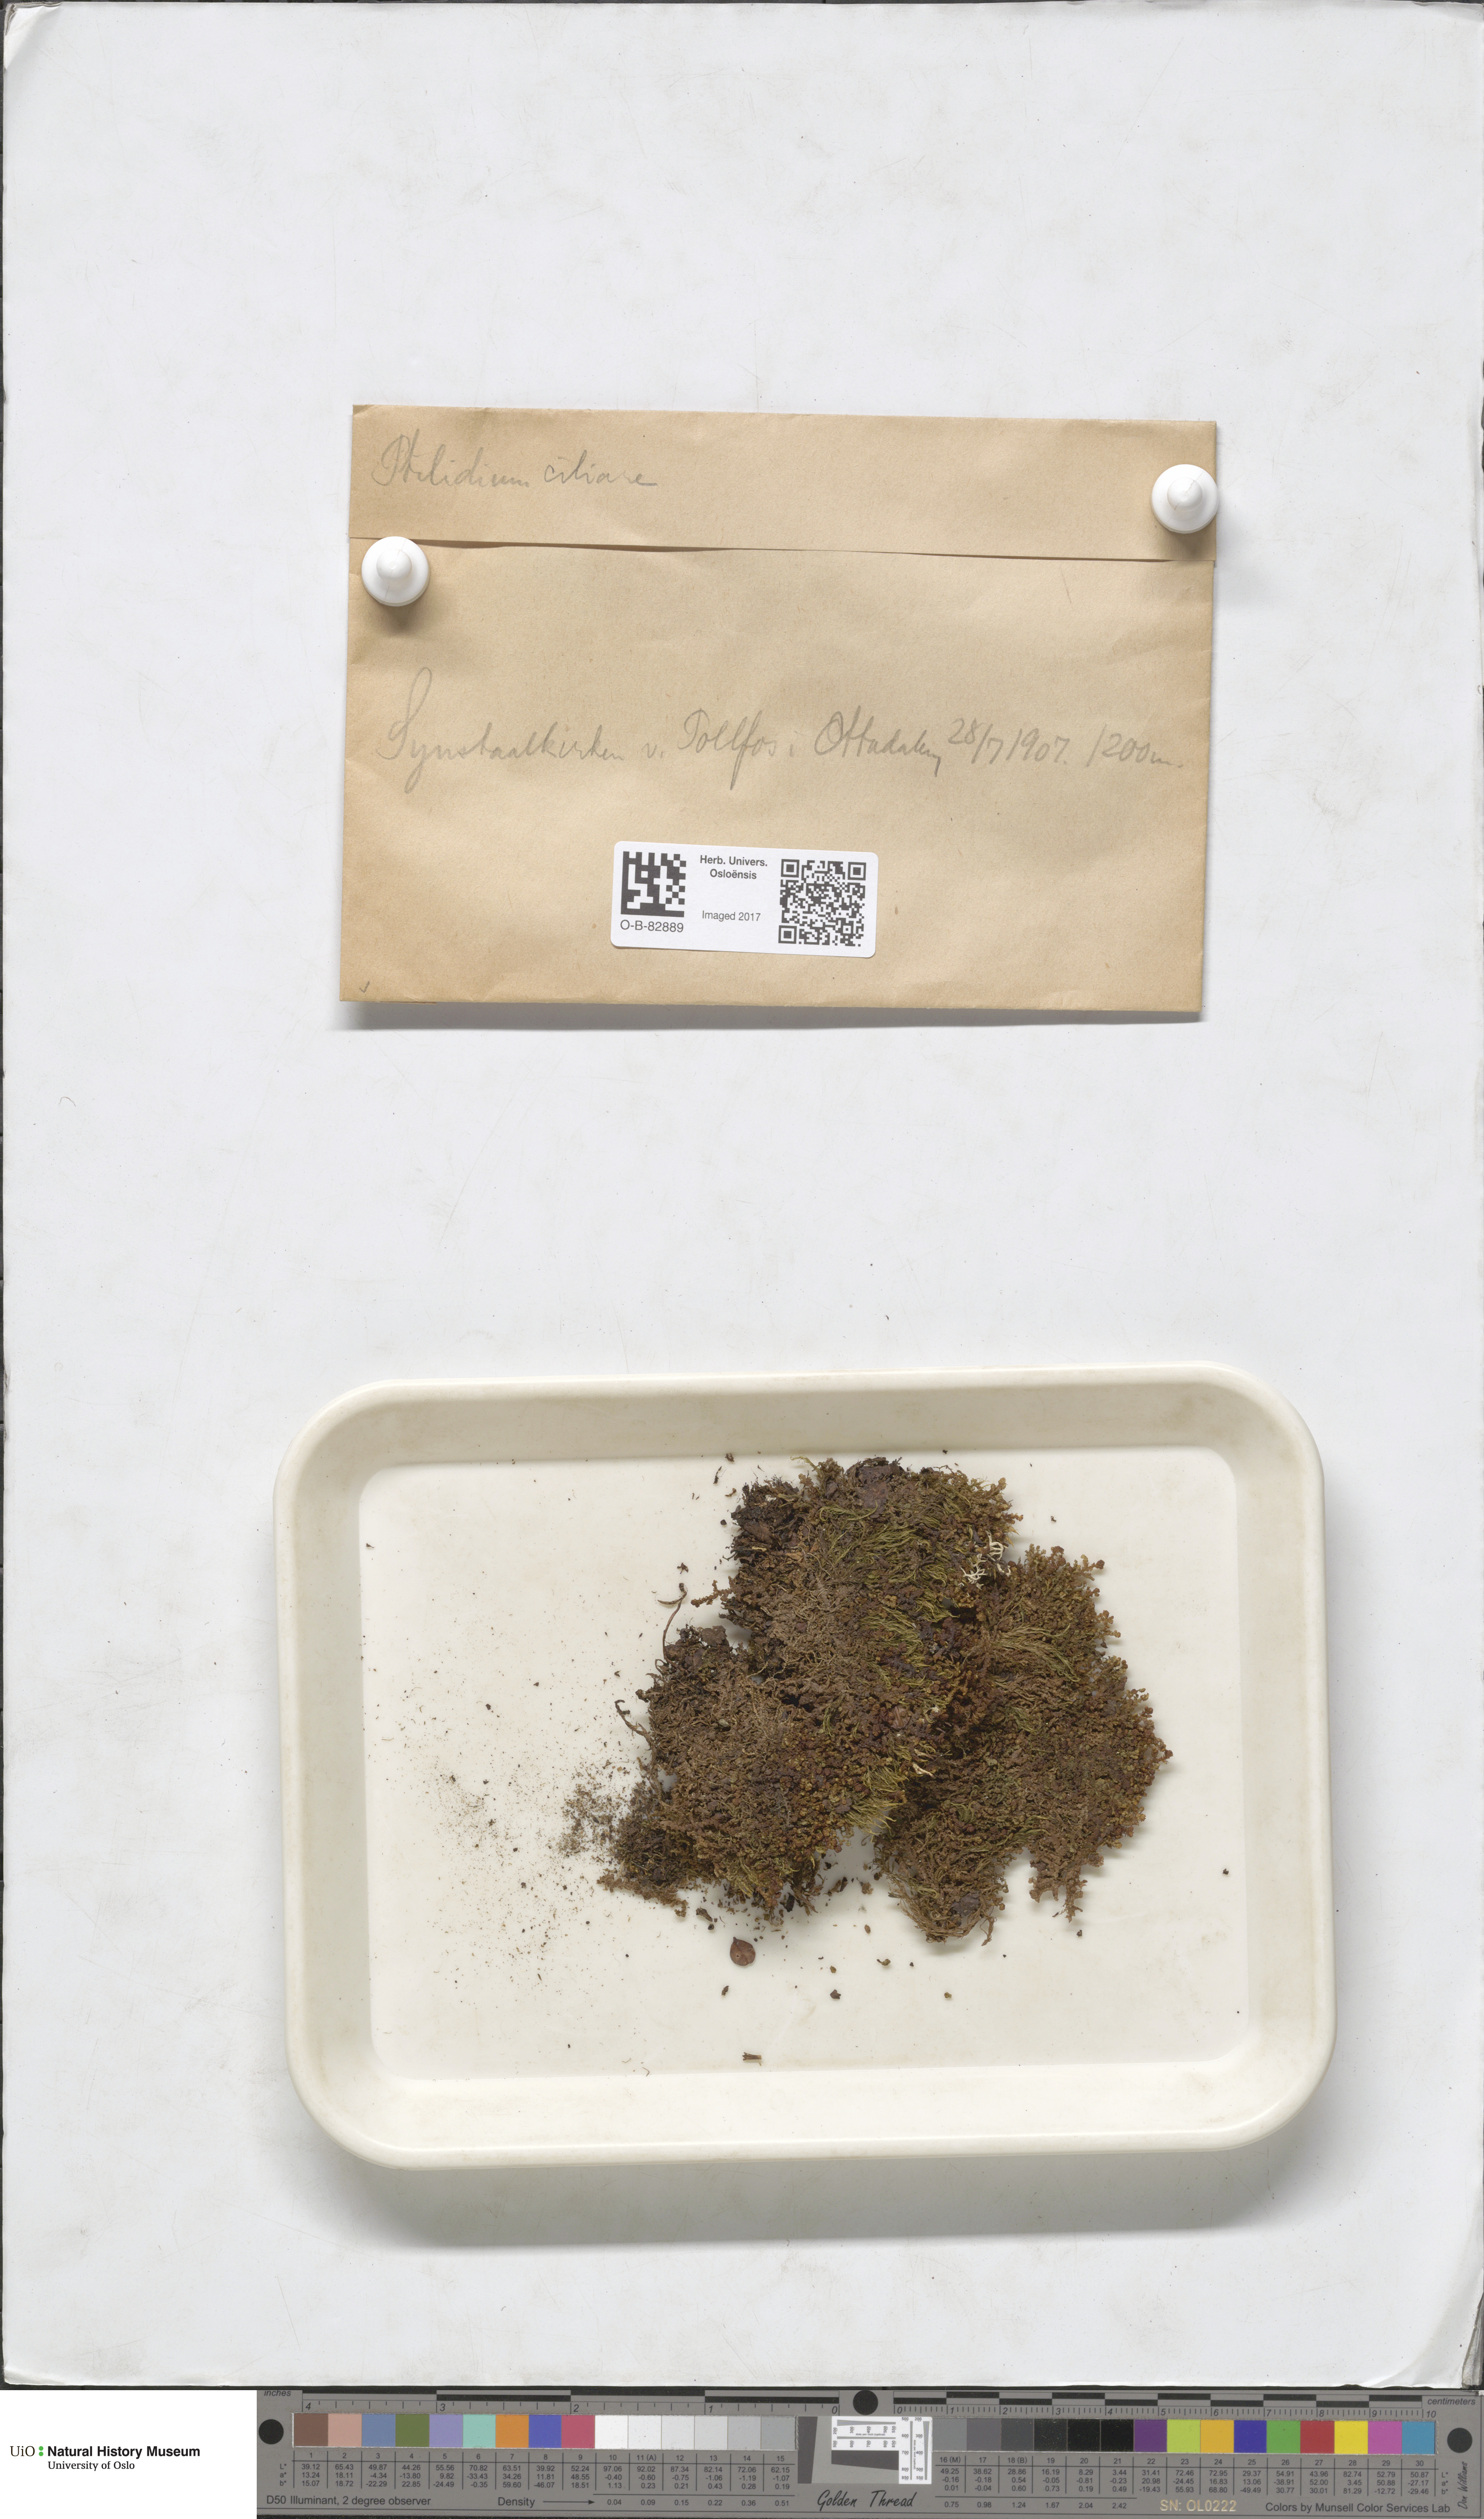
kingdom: Plantae
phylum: Marchantiophyta
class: Jungermanniopsida
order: Ptilidiales
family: Ptilidiaceae
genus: Ptilidium
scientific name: Ptilidium ciliare
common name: Ciliate fringewort
